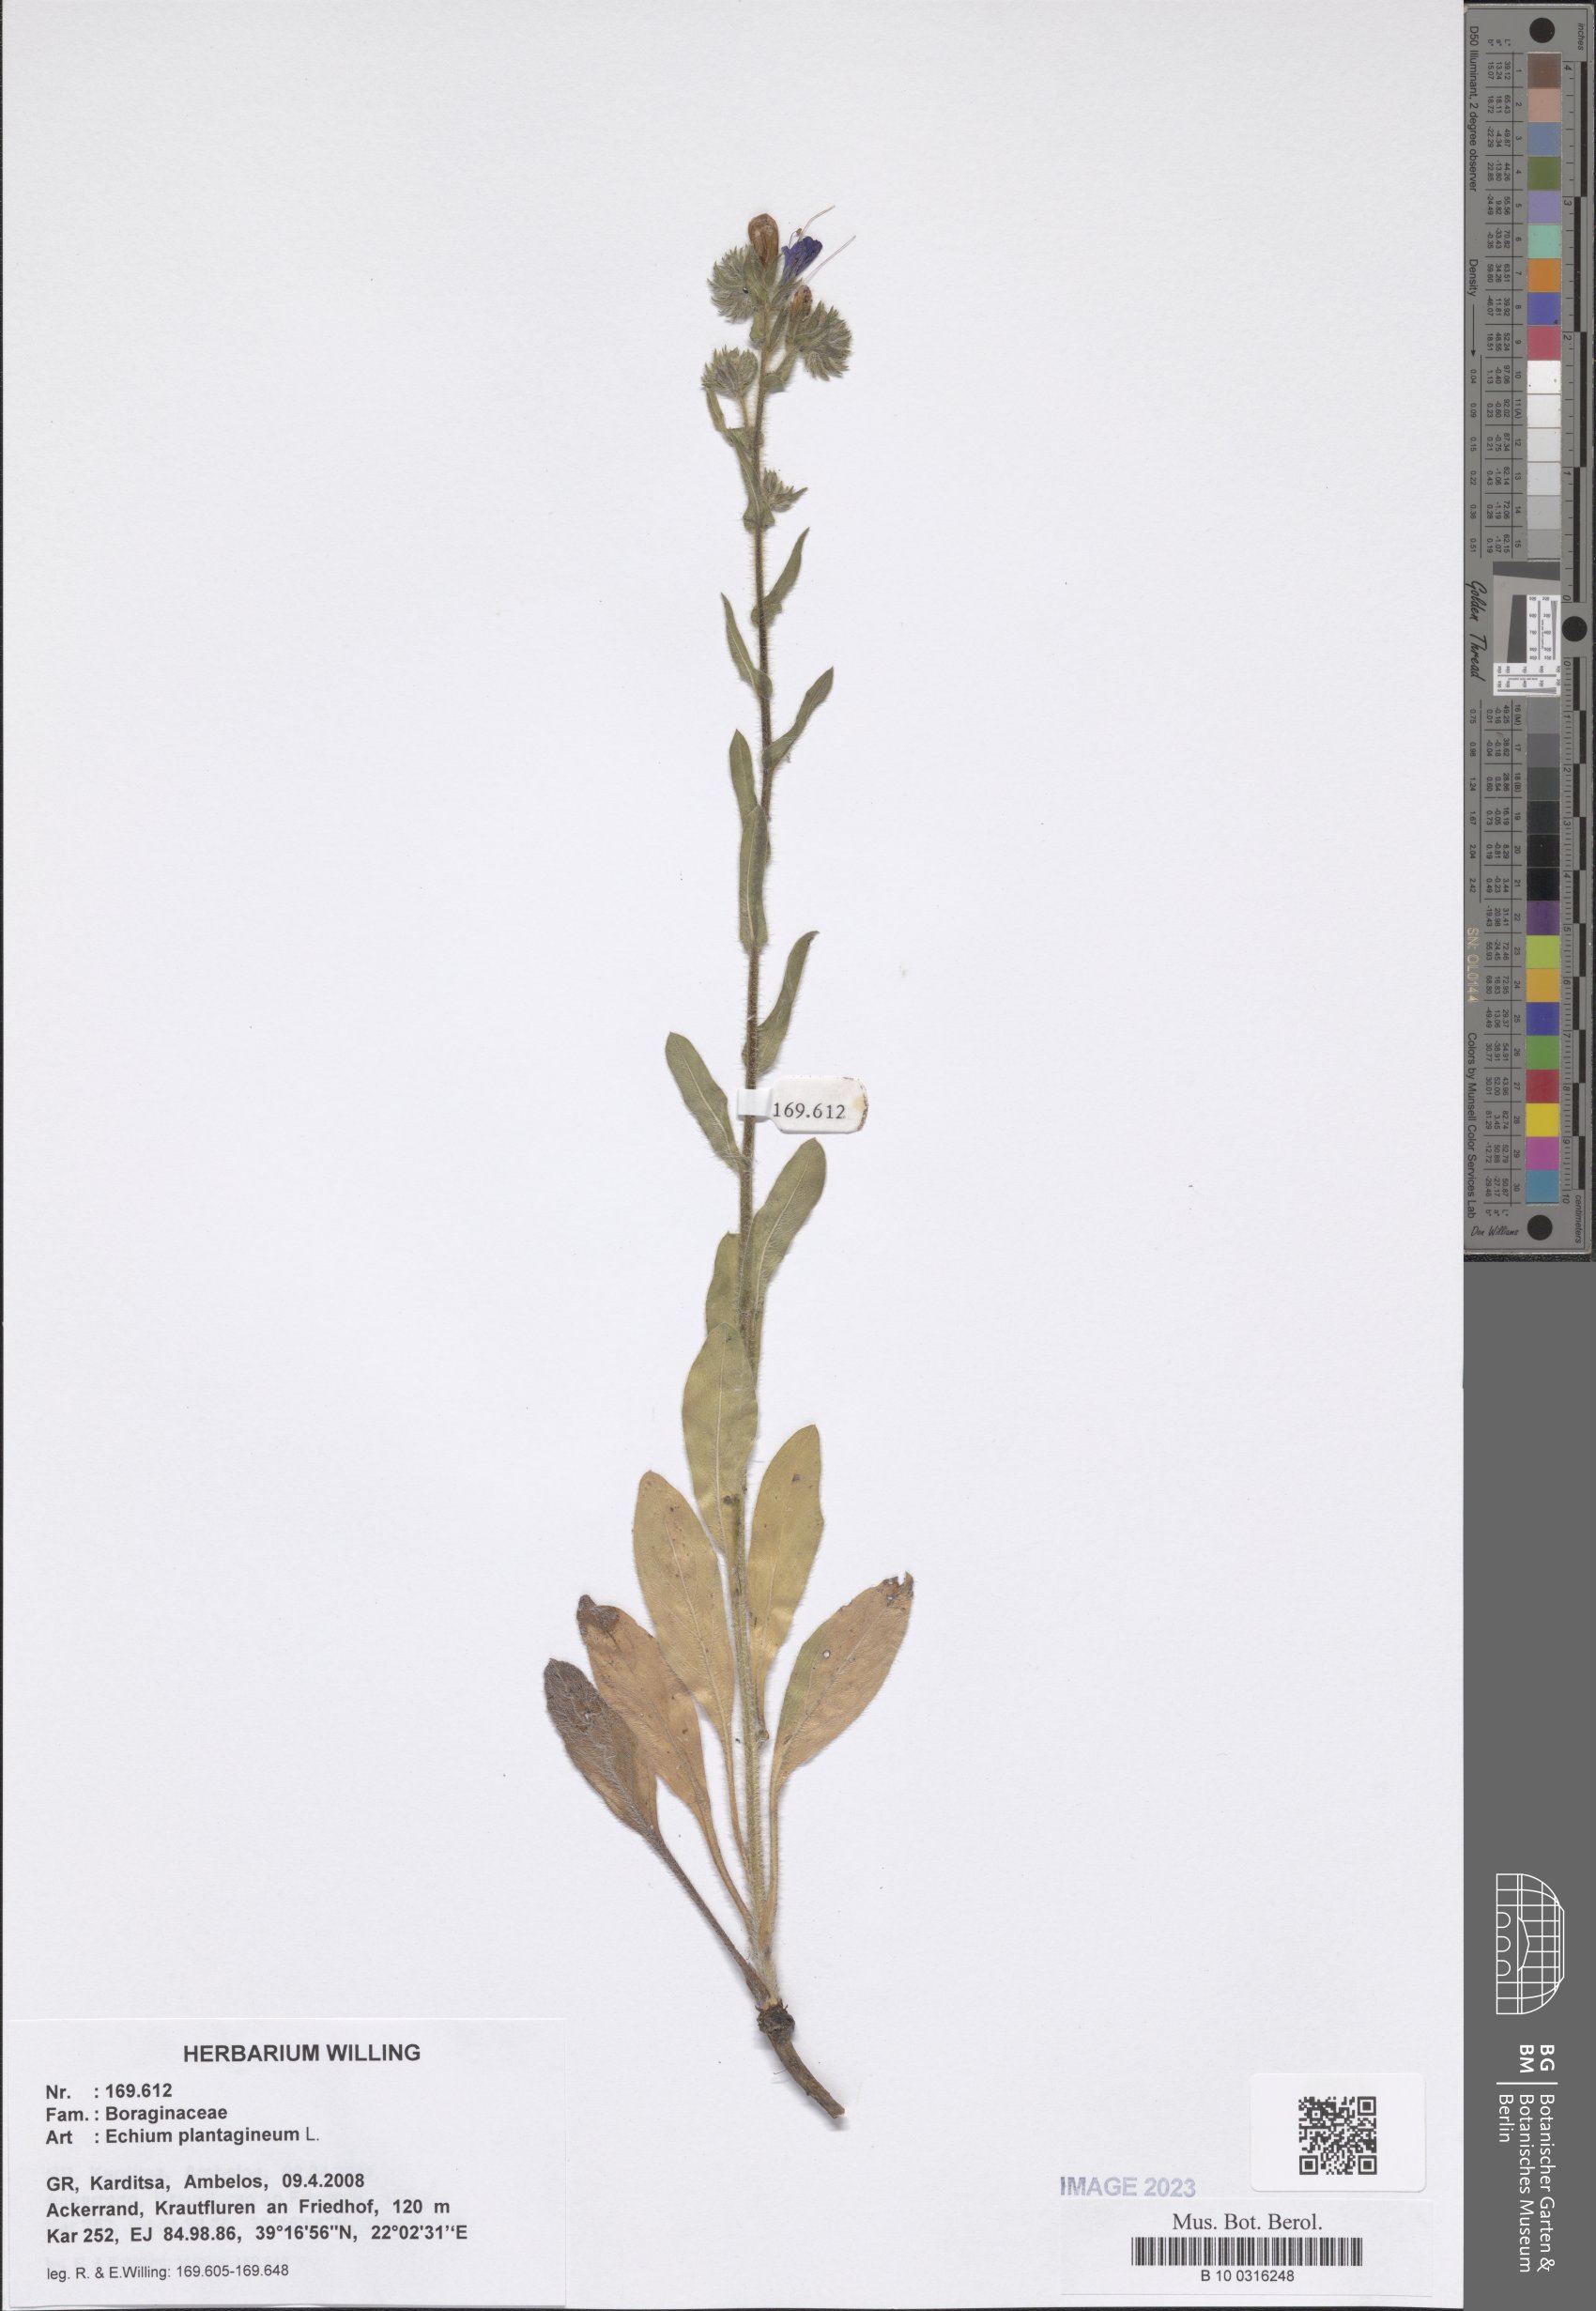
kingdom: Plantae
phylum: Tracheophyta
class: Magnoliopsida
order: Boraginales
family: Boraginaceae
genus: Echium
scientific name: Echium plantagineum
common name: Purple viper's-bugloss
